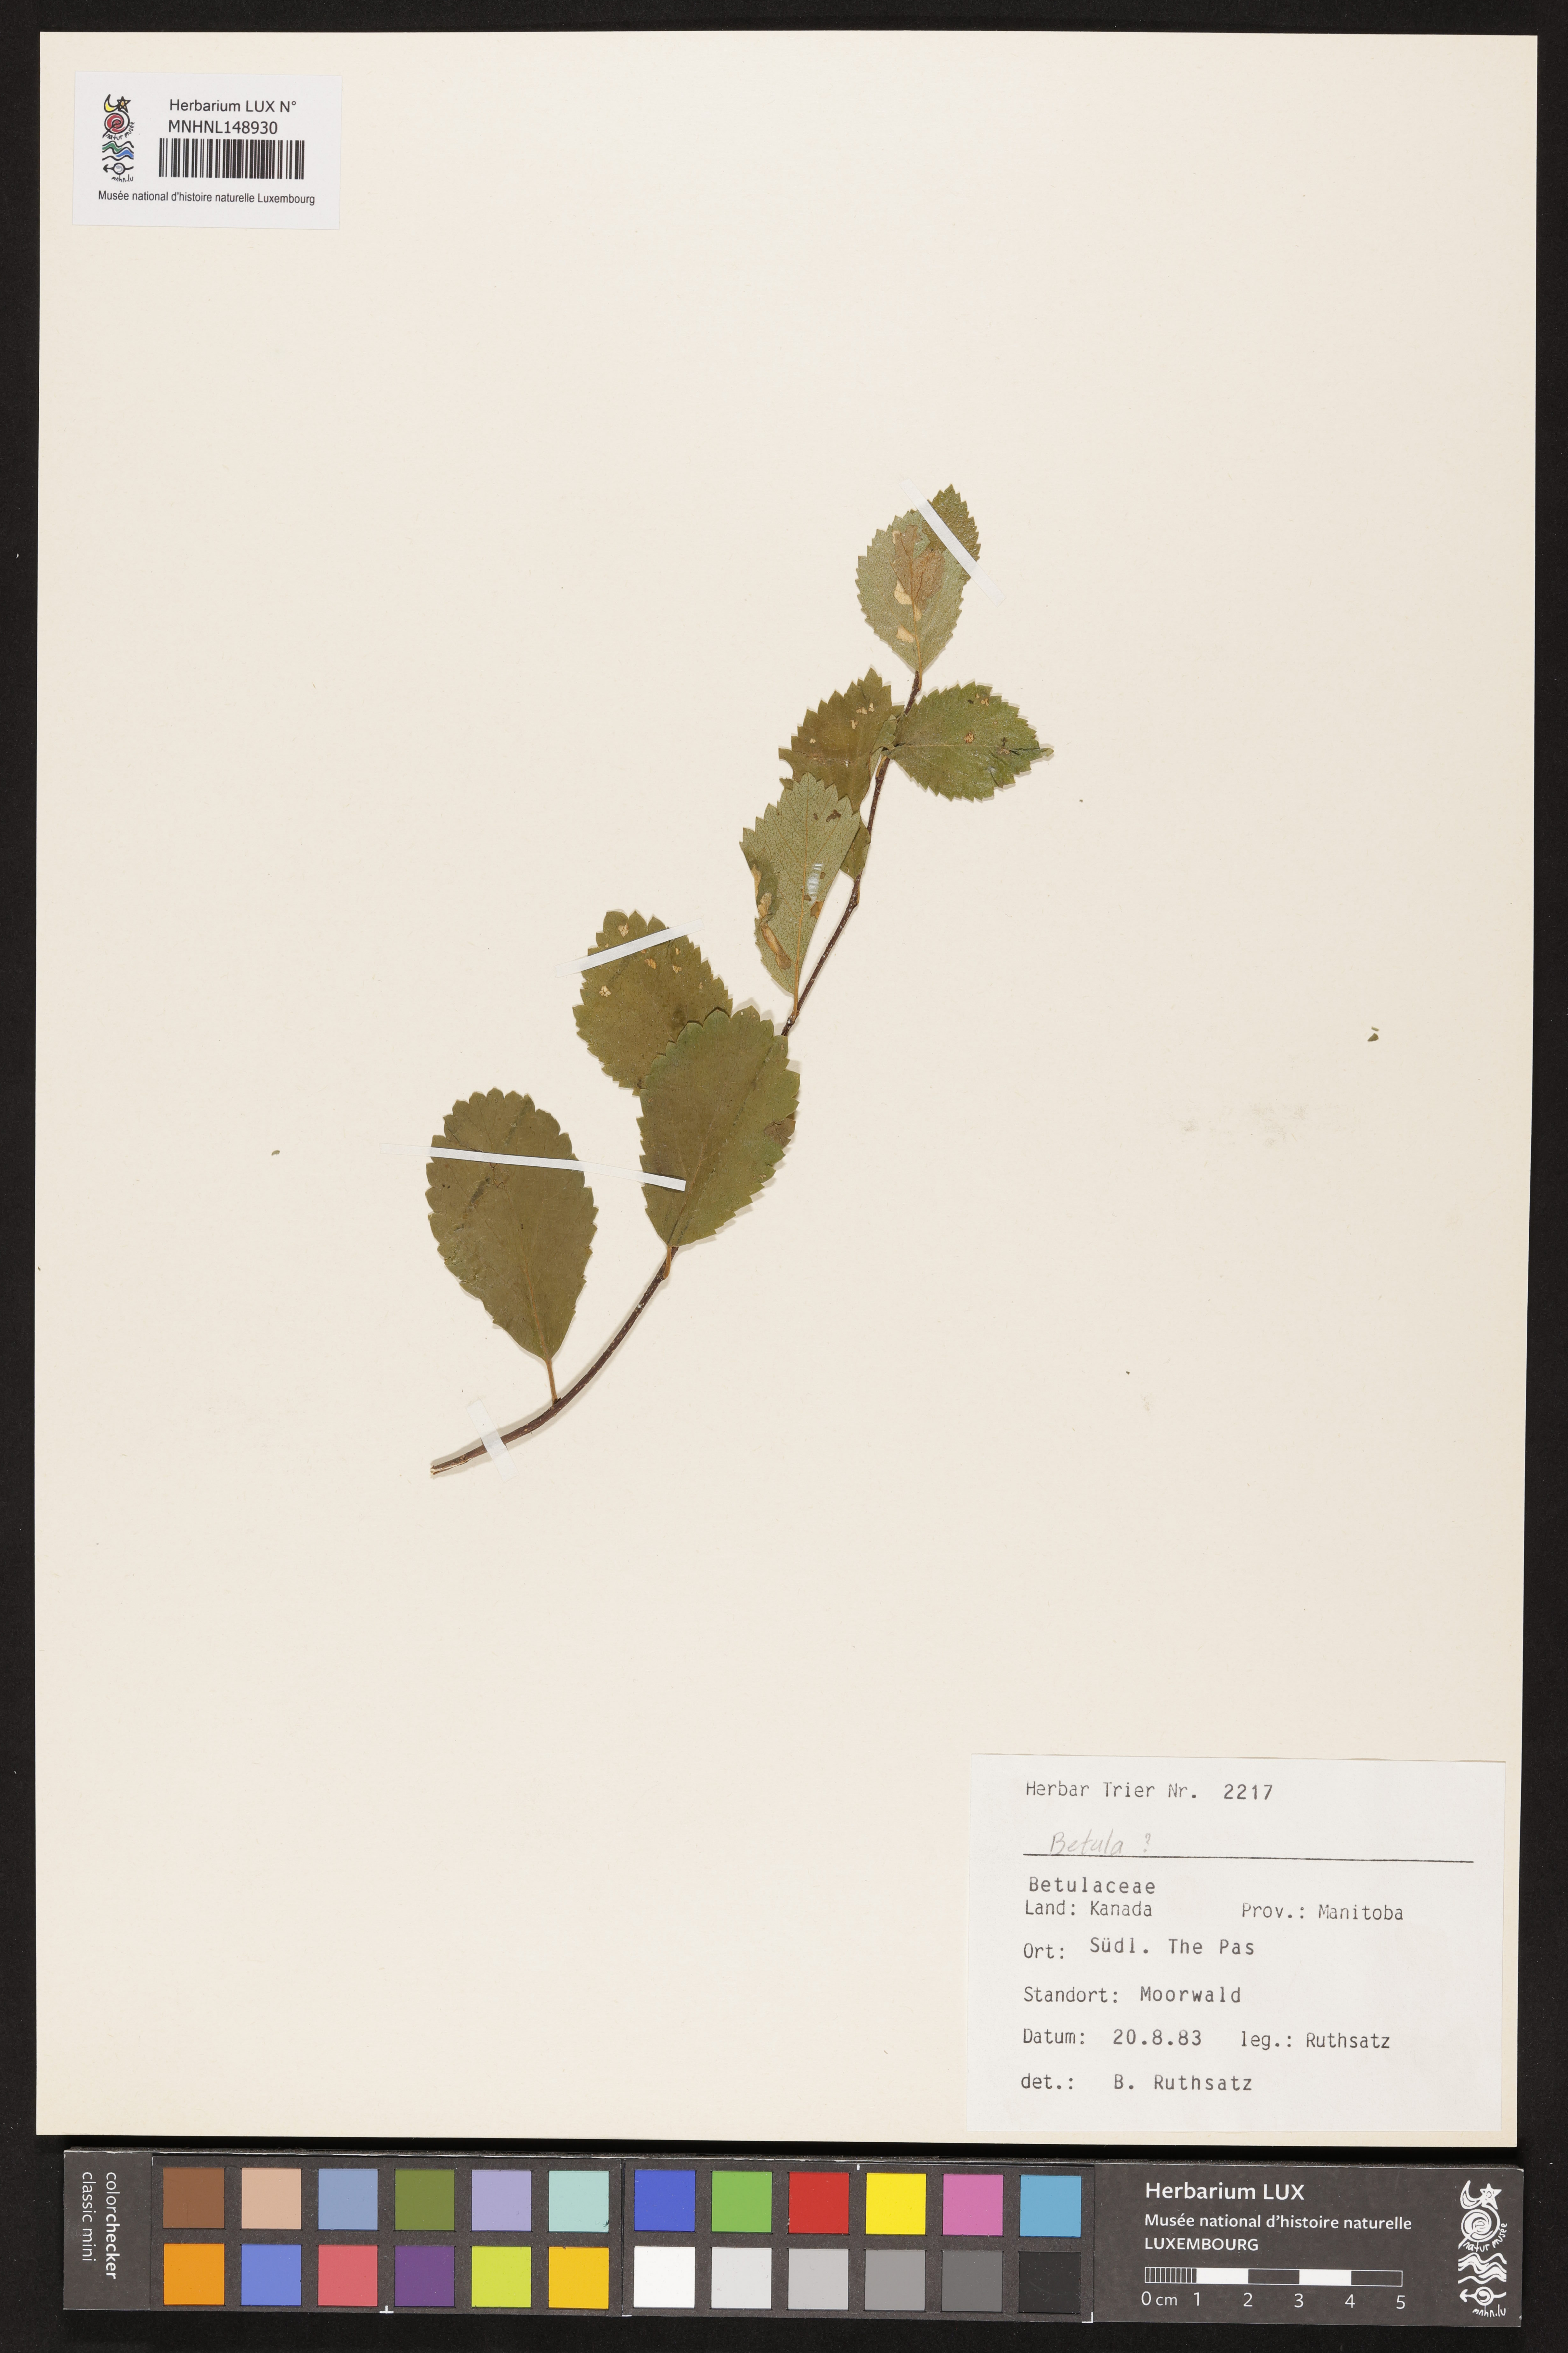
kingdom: Plantae
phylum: Tracheophyta
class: Magnoliopsida
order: Fagales
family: Betulaceae
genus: Betula
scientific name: Betula
